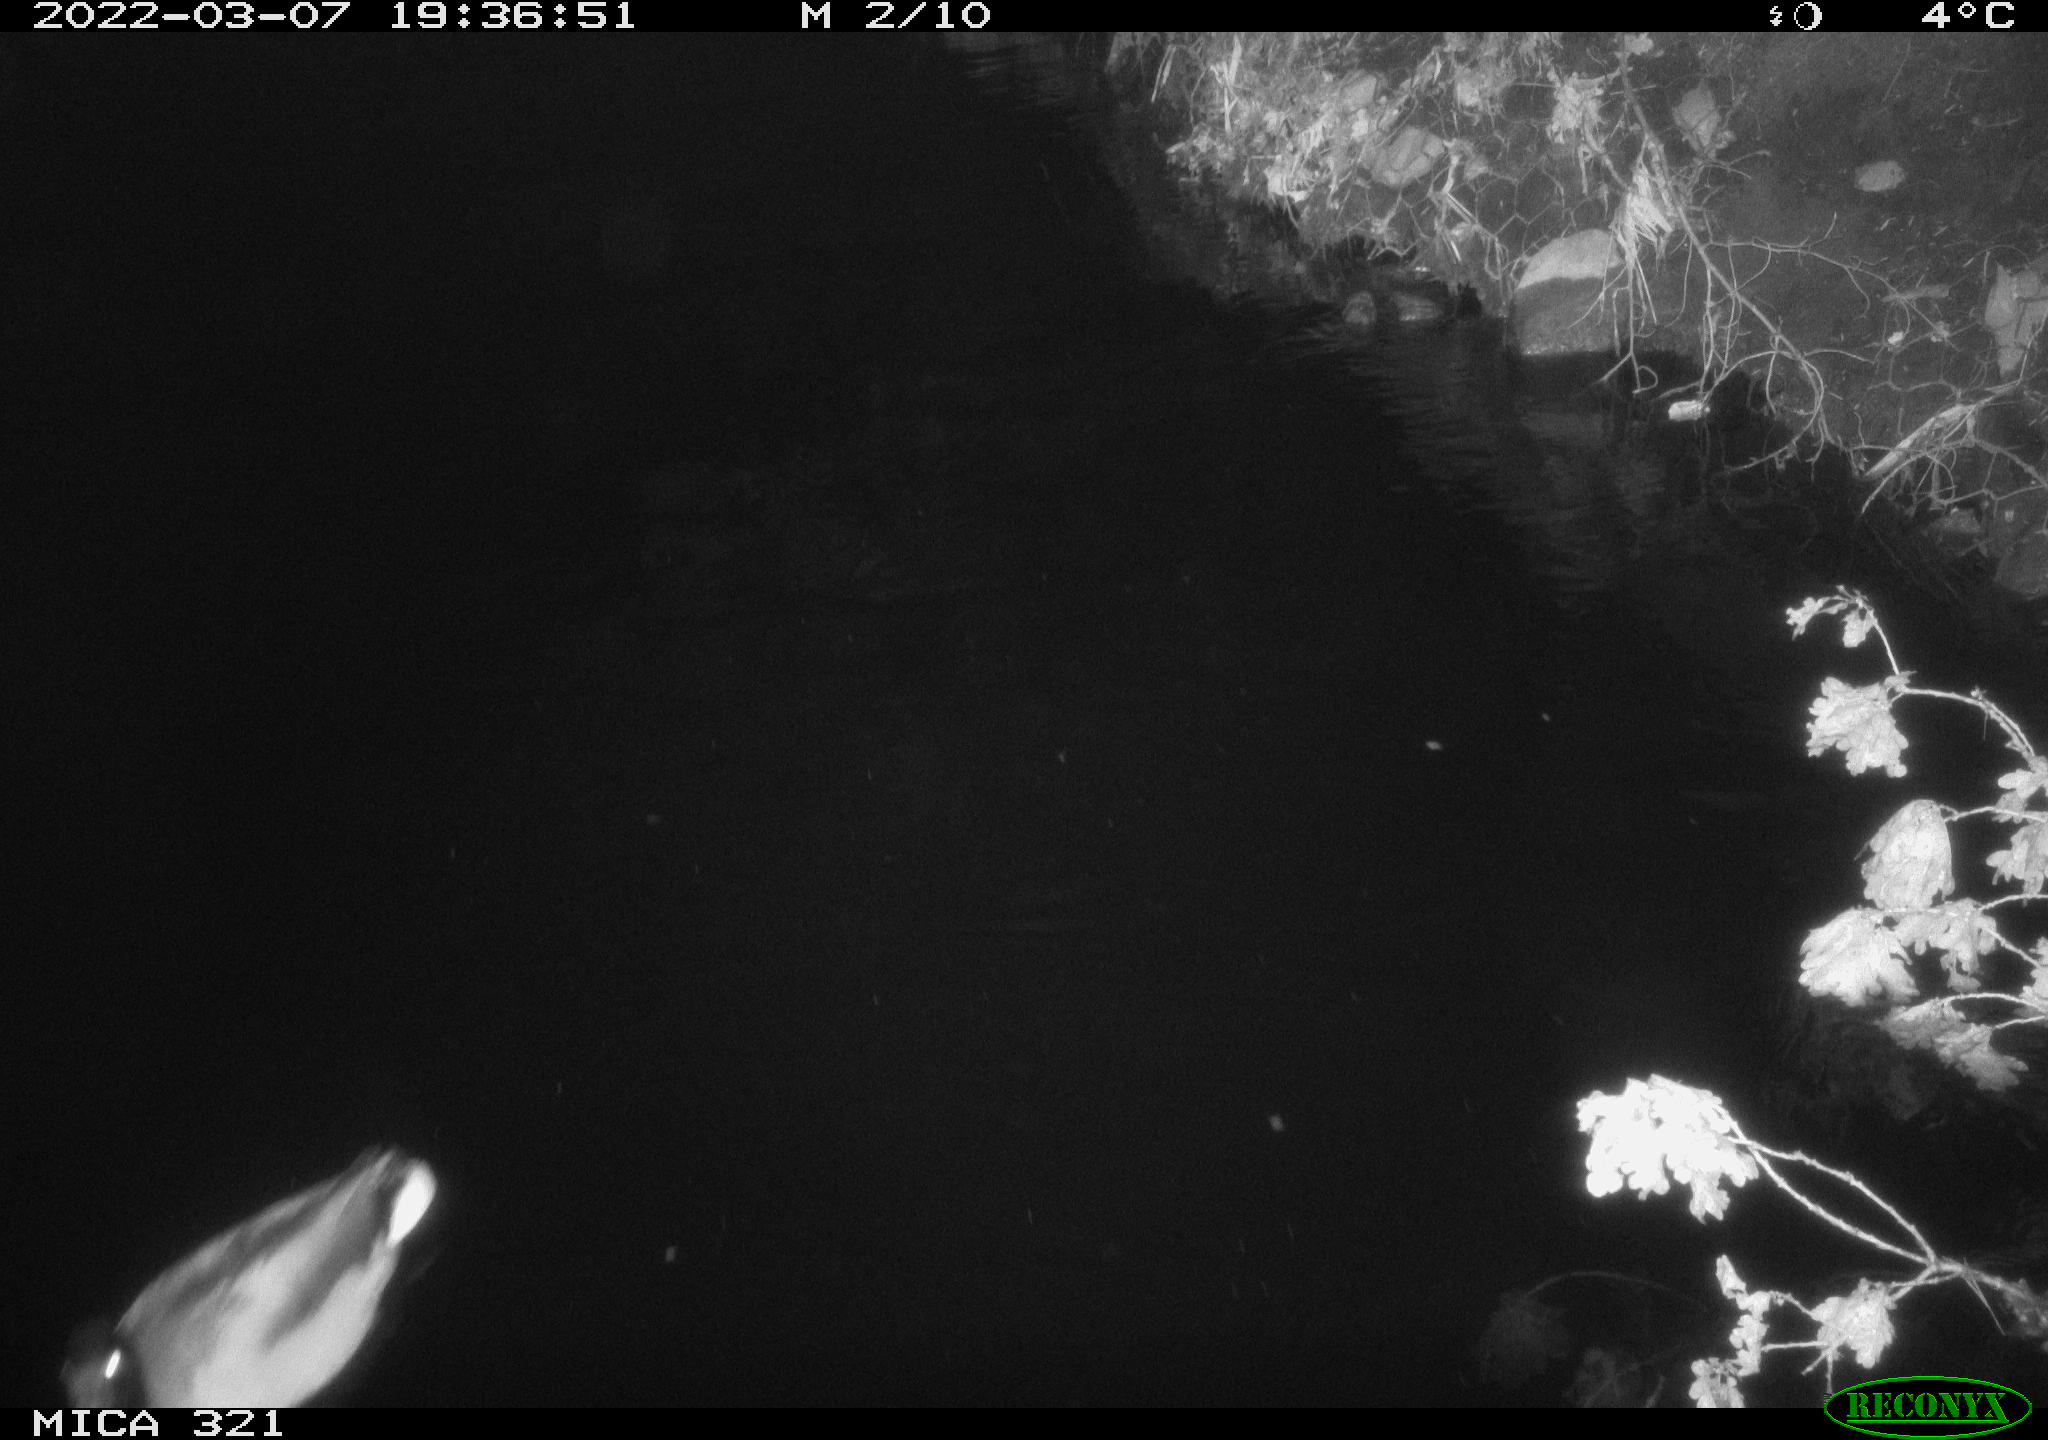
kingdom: Animalia
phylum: Chordata
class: Aves
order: Anseriformes
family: Anatidae
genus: Anas
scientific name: Anas platyrhynchos
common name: Mallard
